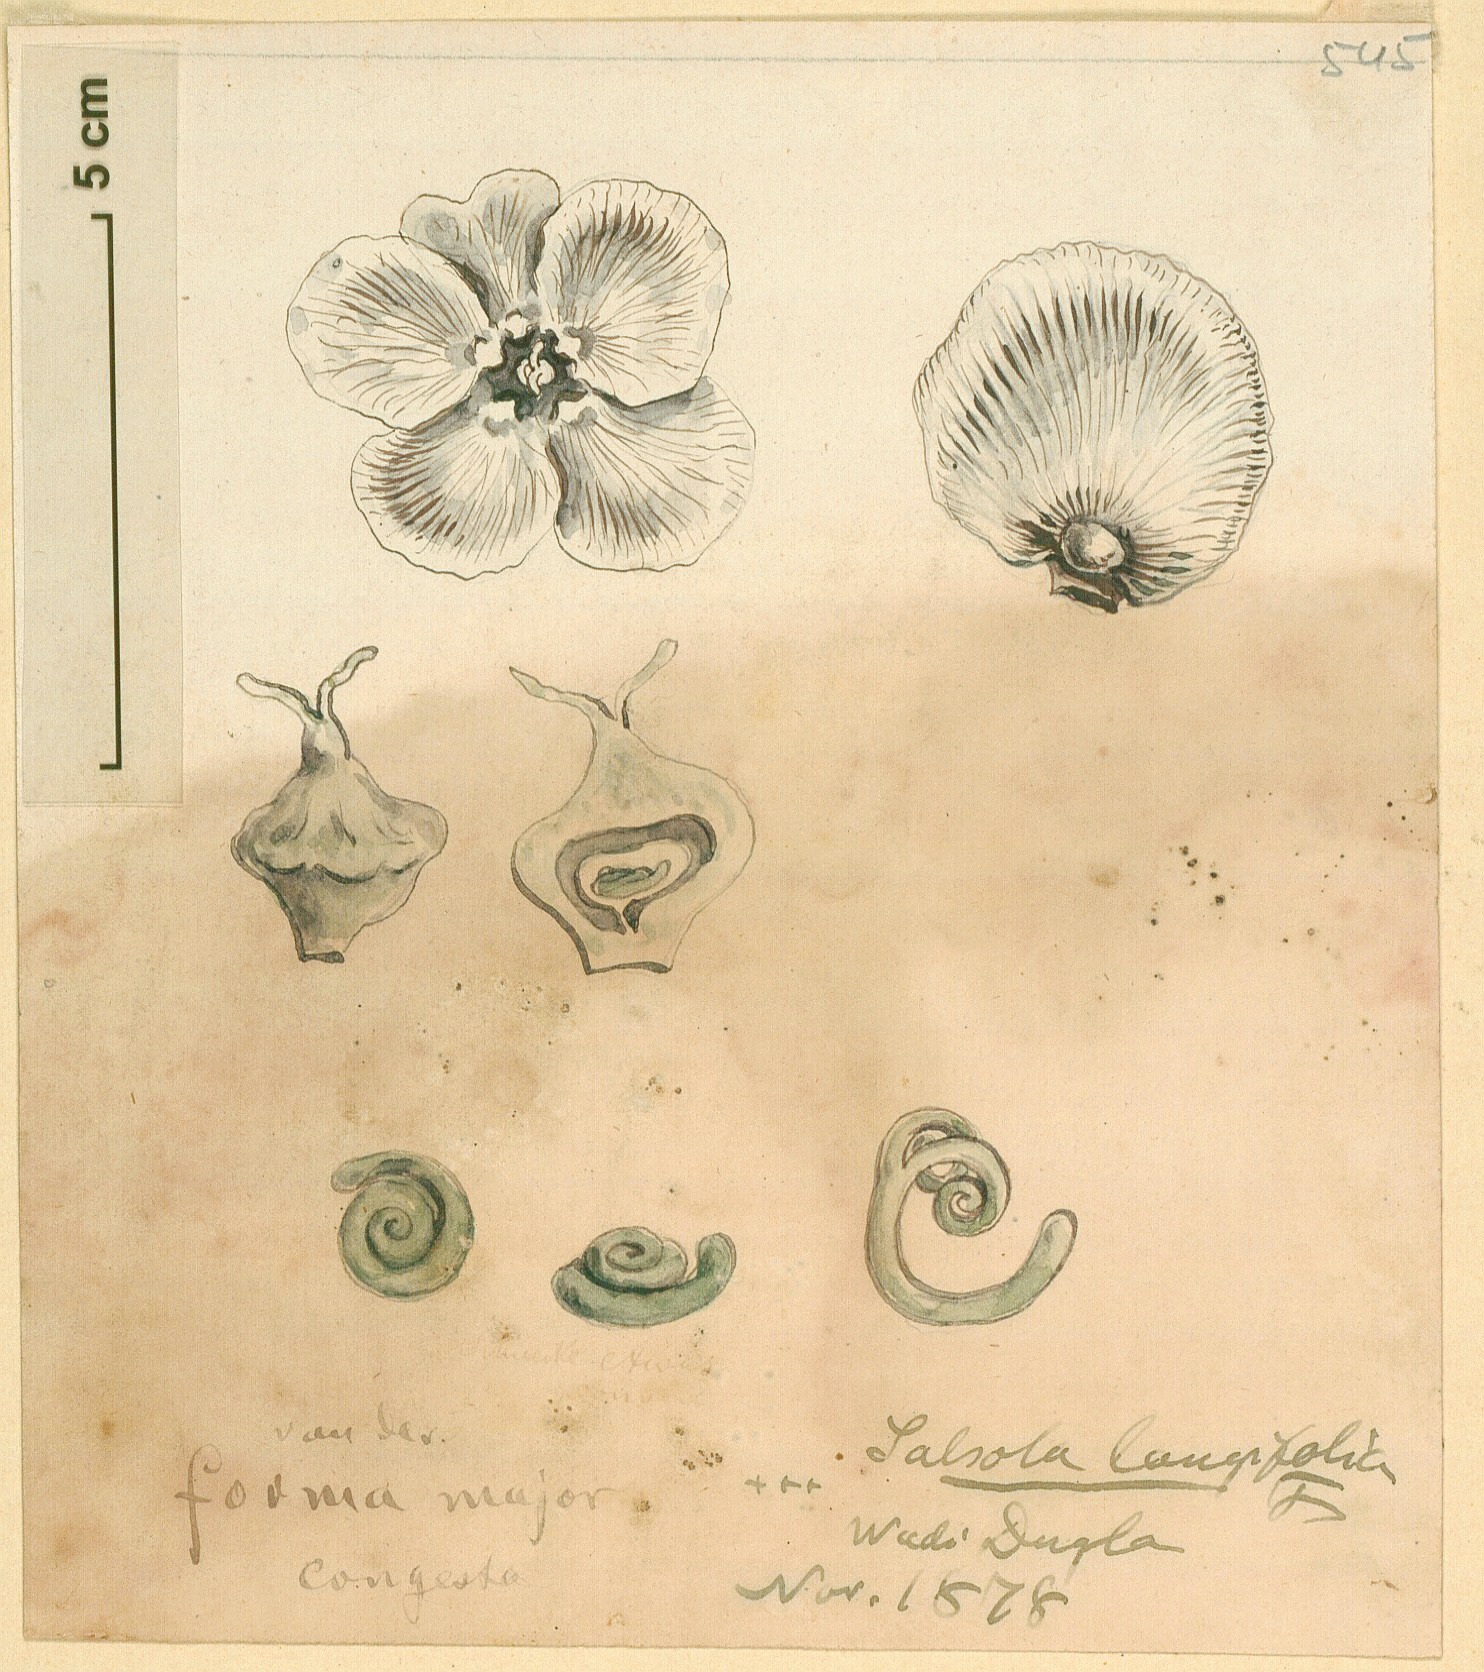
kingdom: Plantae
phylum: Tracheophyta
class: Magnoliopsida
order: Caryophyllales
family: Amaranthaceae
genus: Soda
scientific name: Soda
